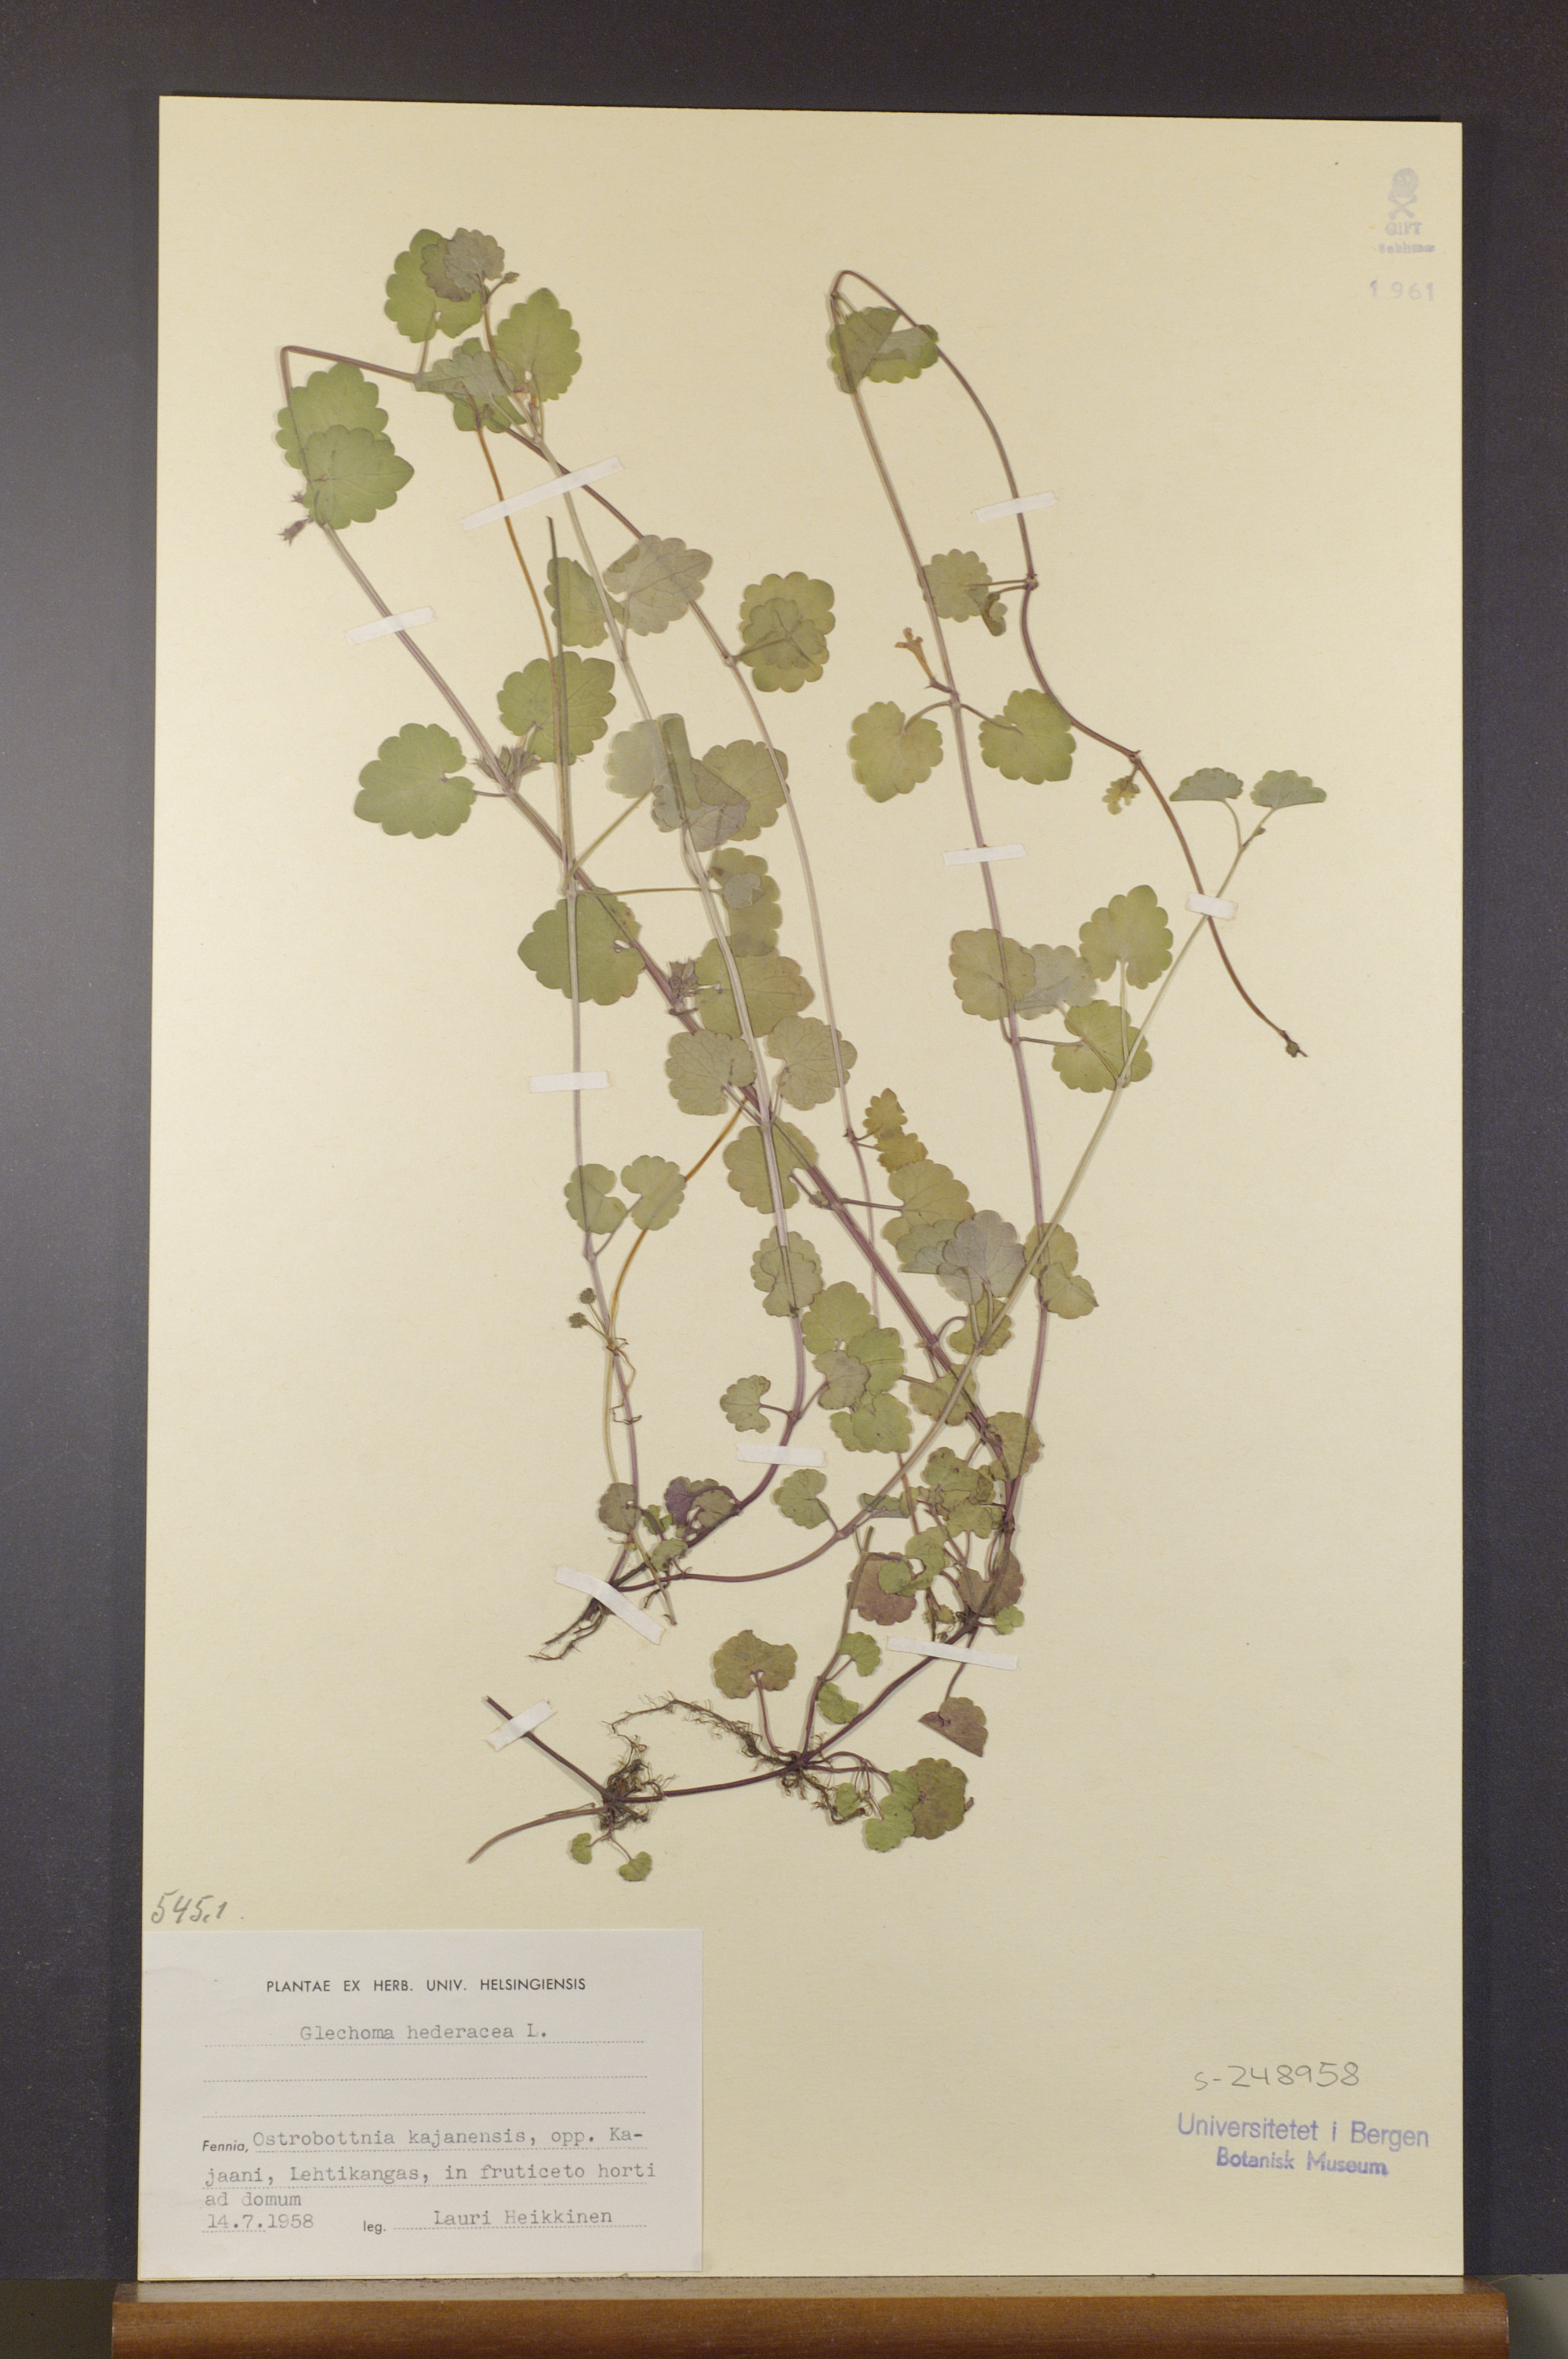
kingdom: Plantae
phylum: Tracheophyta
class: Magnoliopsida
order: Lamiales
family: Lamiaceae
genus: Glechoma
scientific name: Glechoma hederacea
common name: Ground ivy
